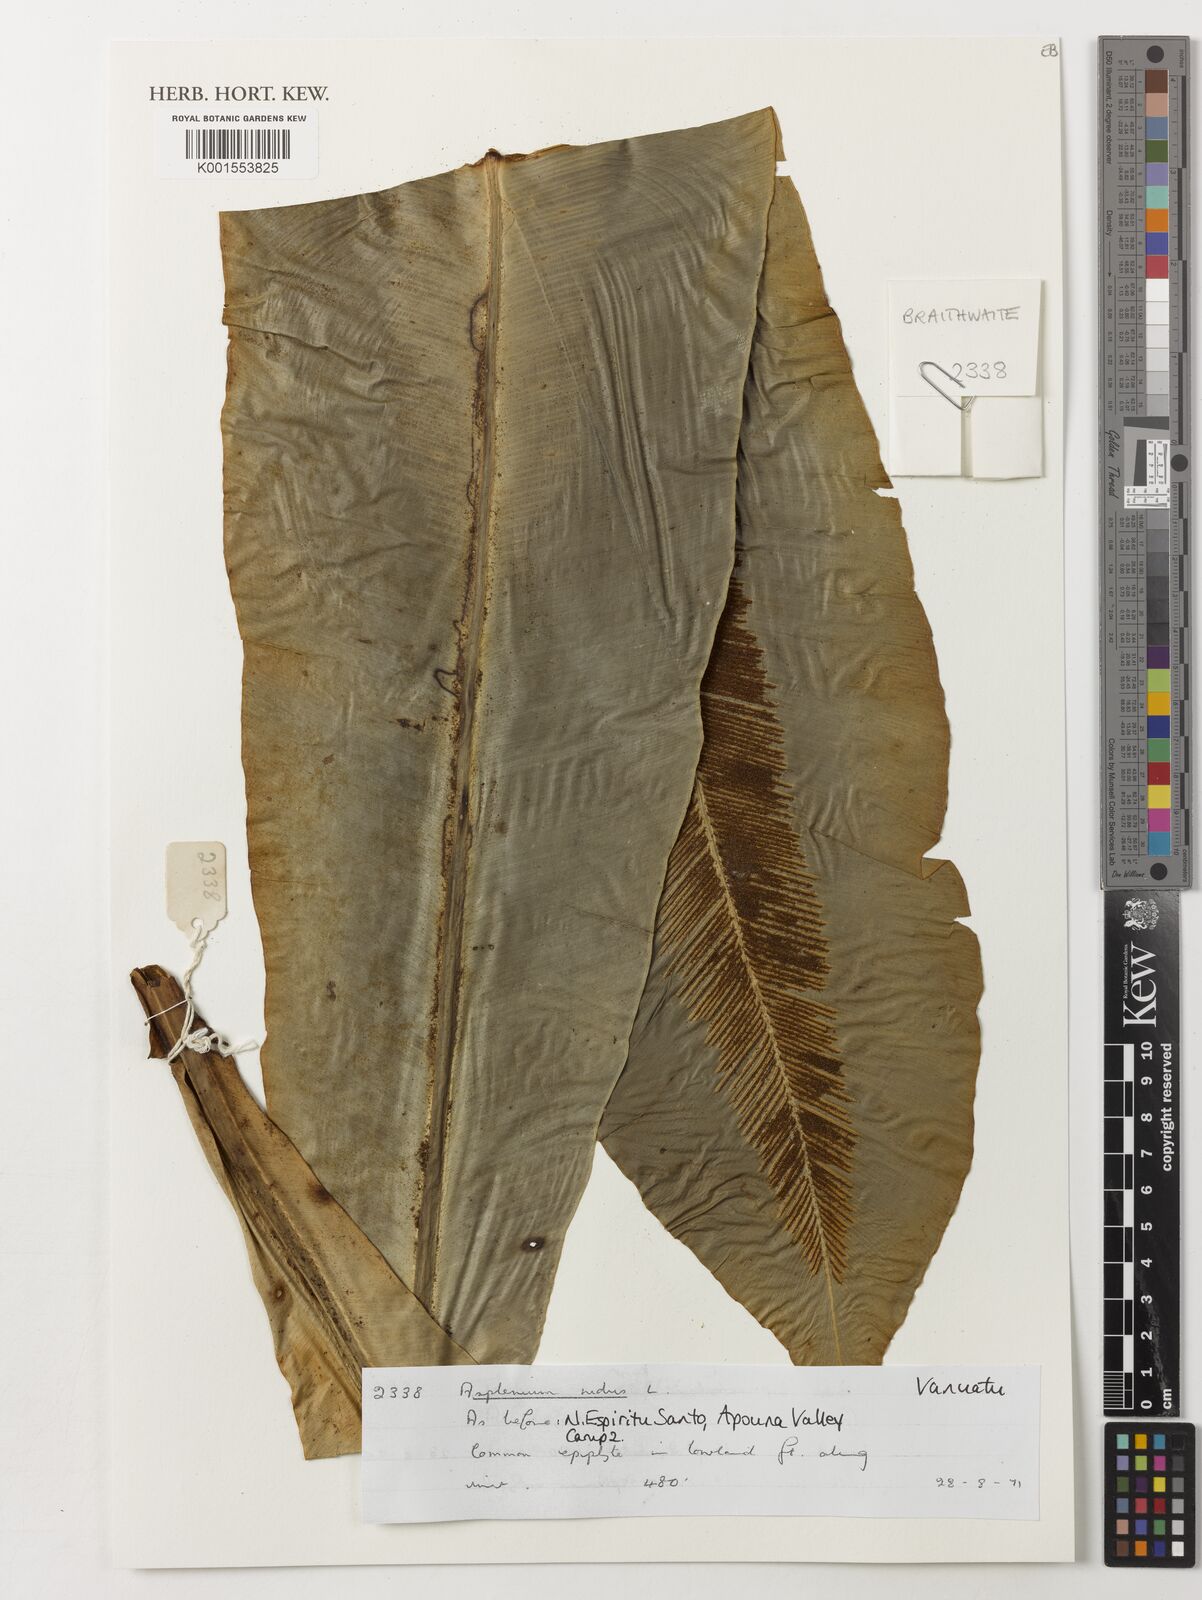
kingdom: Plantae
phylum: Tracheophyta
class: Polypodiopsida
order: Polypodiales
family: Aspleniaceae
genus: Asplenium
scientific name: Asplenium nidus
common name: Bird's-nest fern
